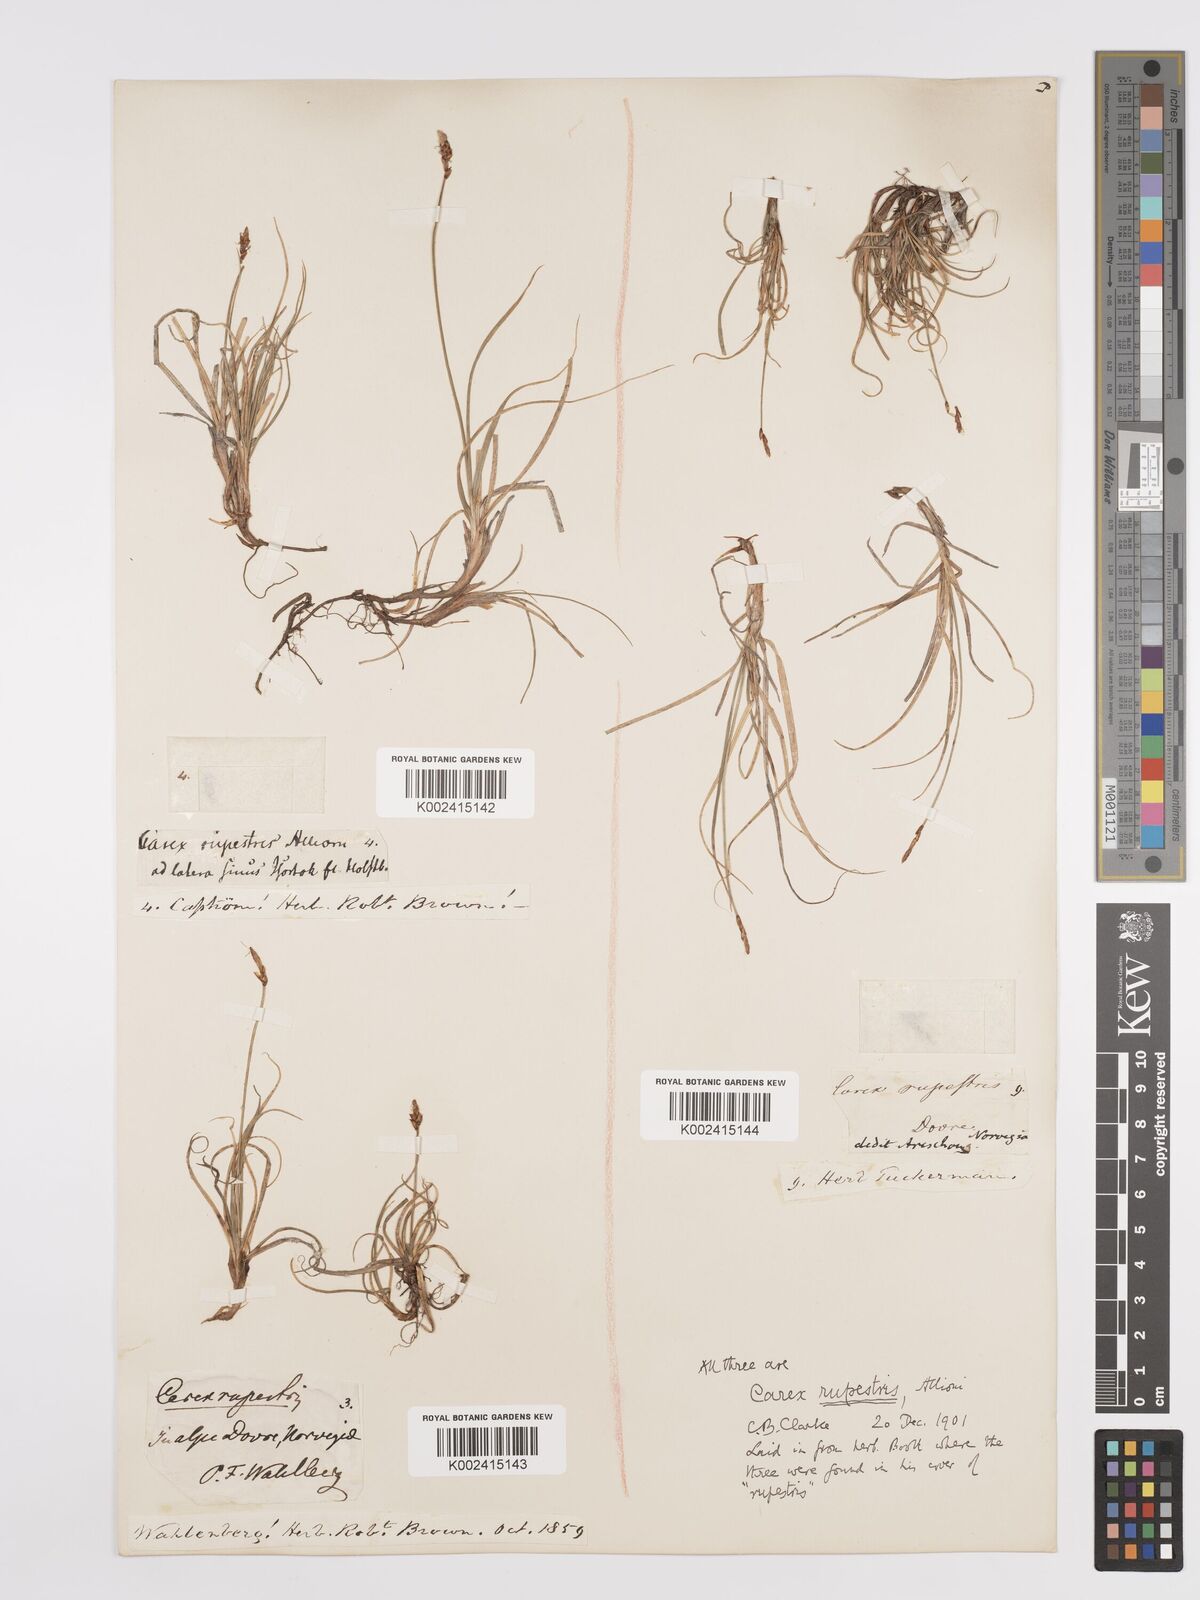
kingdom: Plantae
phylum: Tracheophyta
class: Liliopsida
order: Poales
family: Cyperaceae
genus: Carex
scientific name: Carex rupestris
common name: Rock sedge
